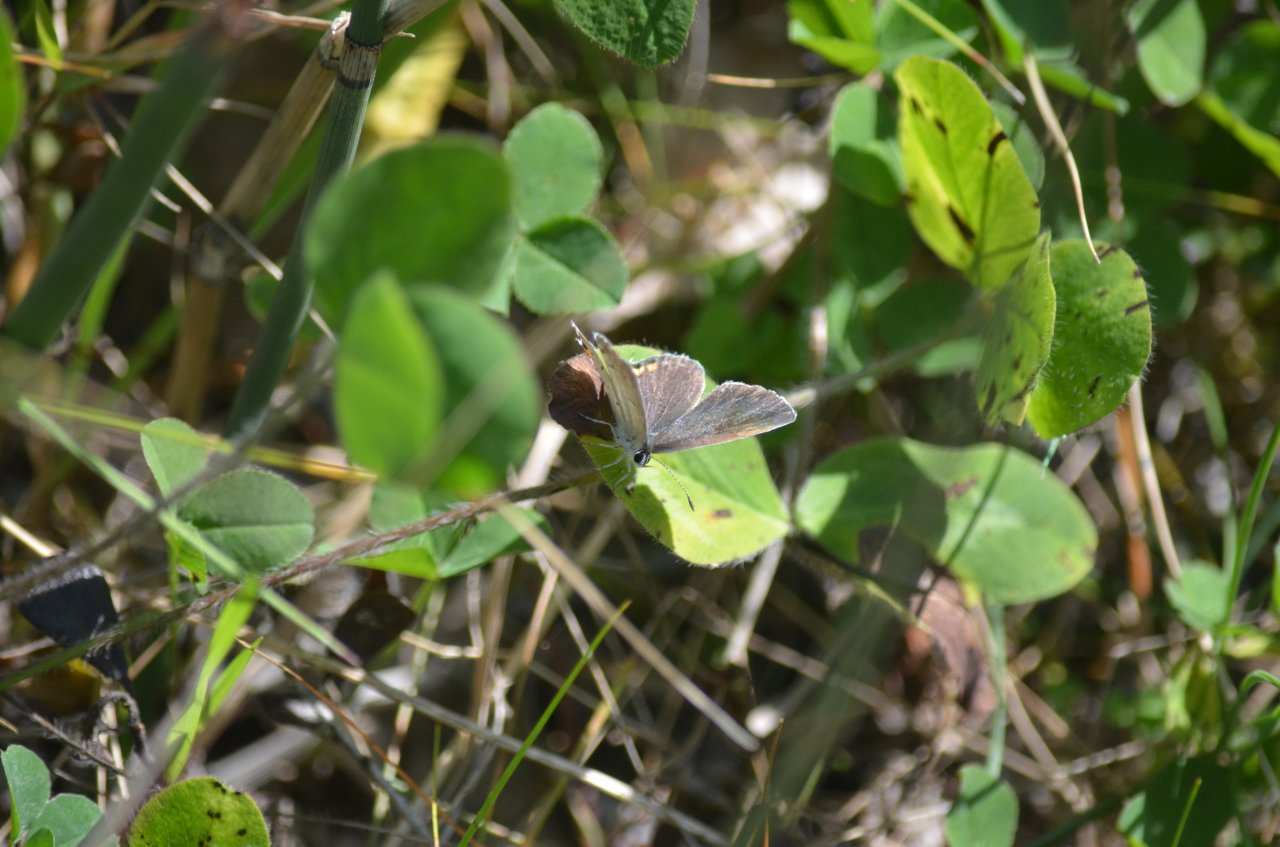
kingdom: Animalia
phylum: Arthropoda
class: Insecta
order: Lepidoptera
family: Lycaenidae
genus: Elkalyce
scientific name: Elkalyce comyntas
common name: Eastern Tailed-Blue
